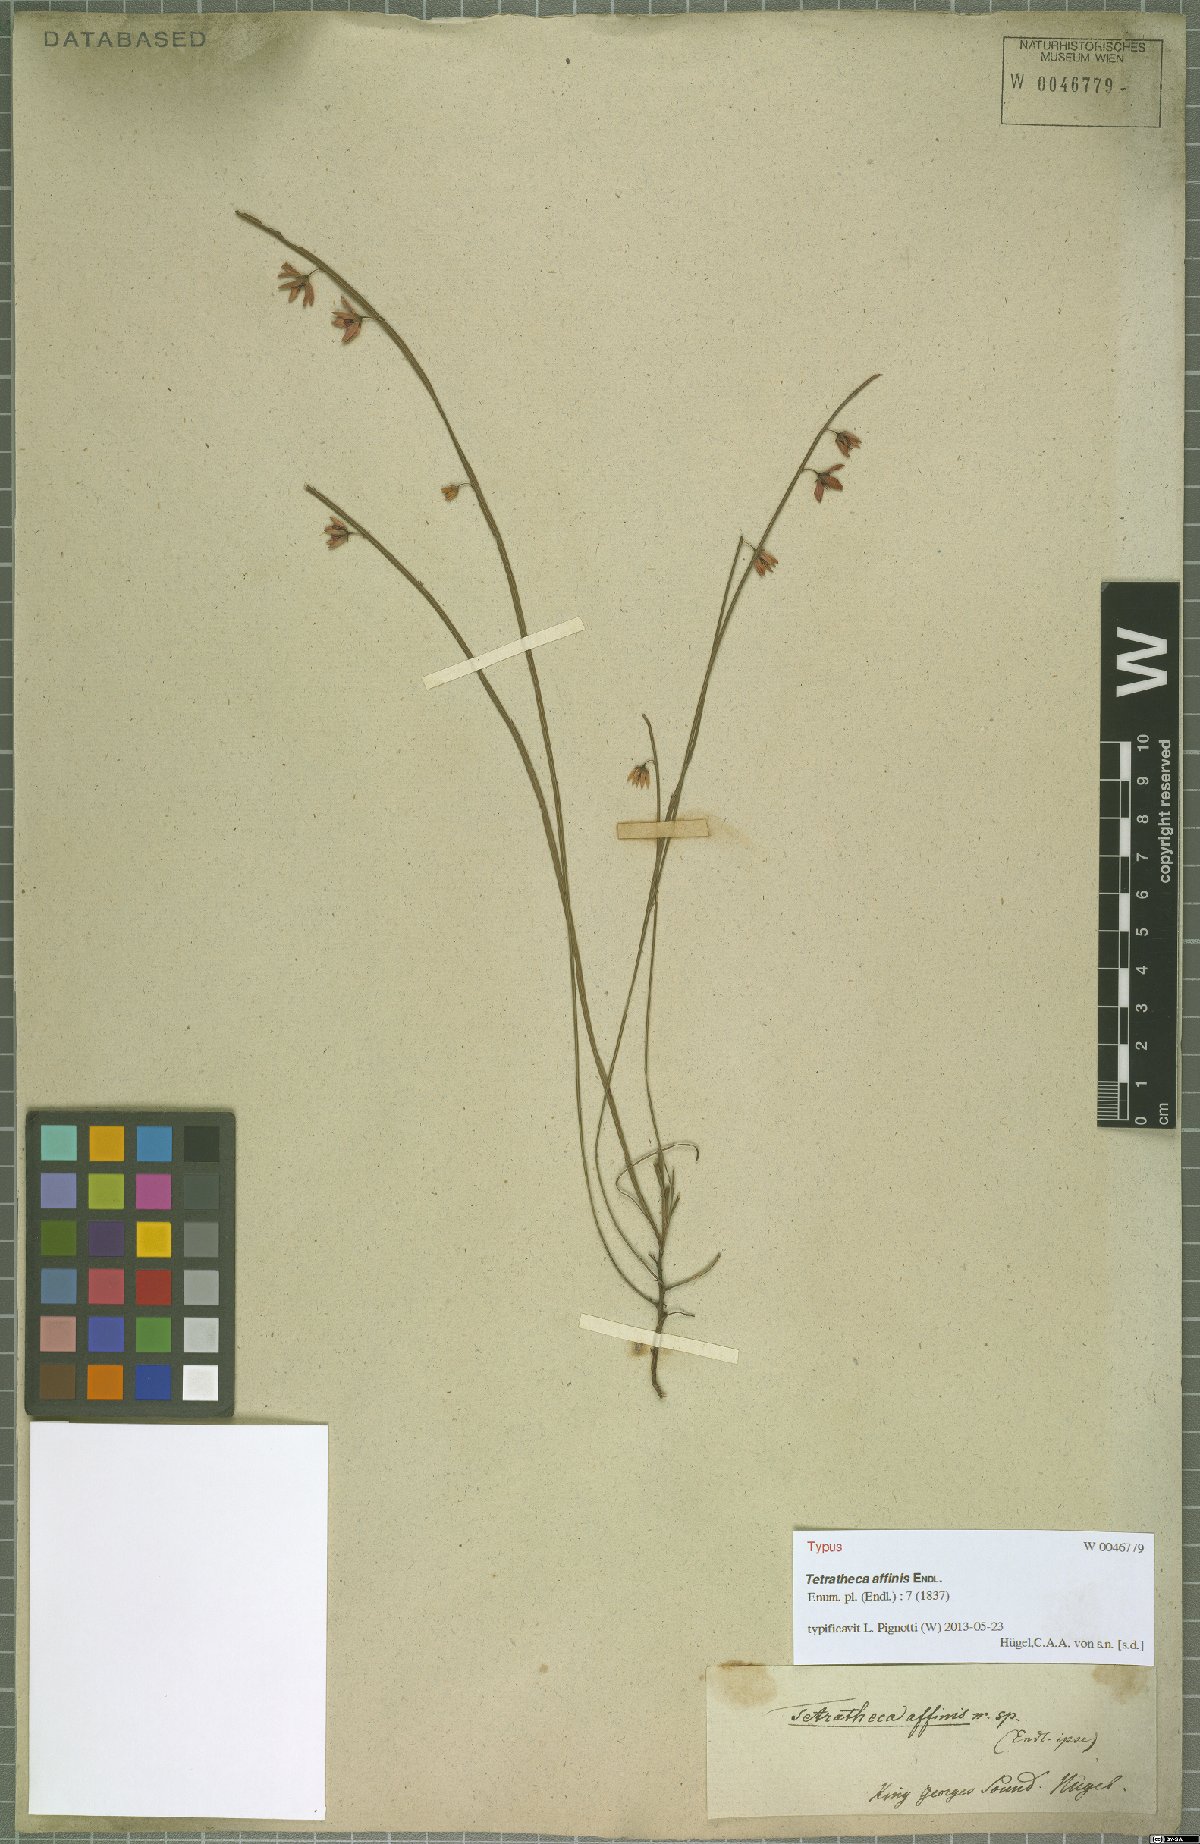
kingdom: Plantae
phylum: Tracheophyta
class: Magnoliopsida
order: Oxalidales
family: Elaeocarpaceae
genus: Tetratheca
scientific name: Tetratheca affinis
